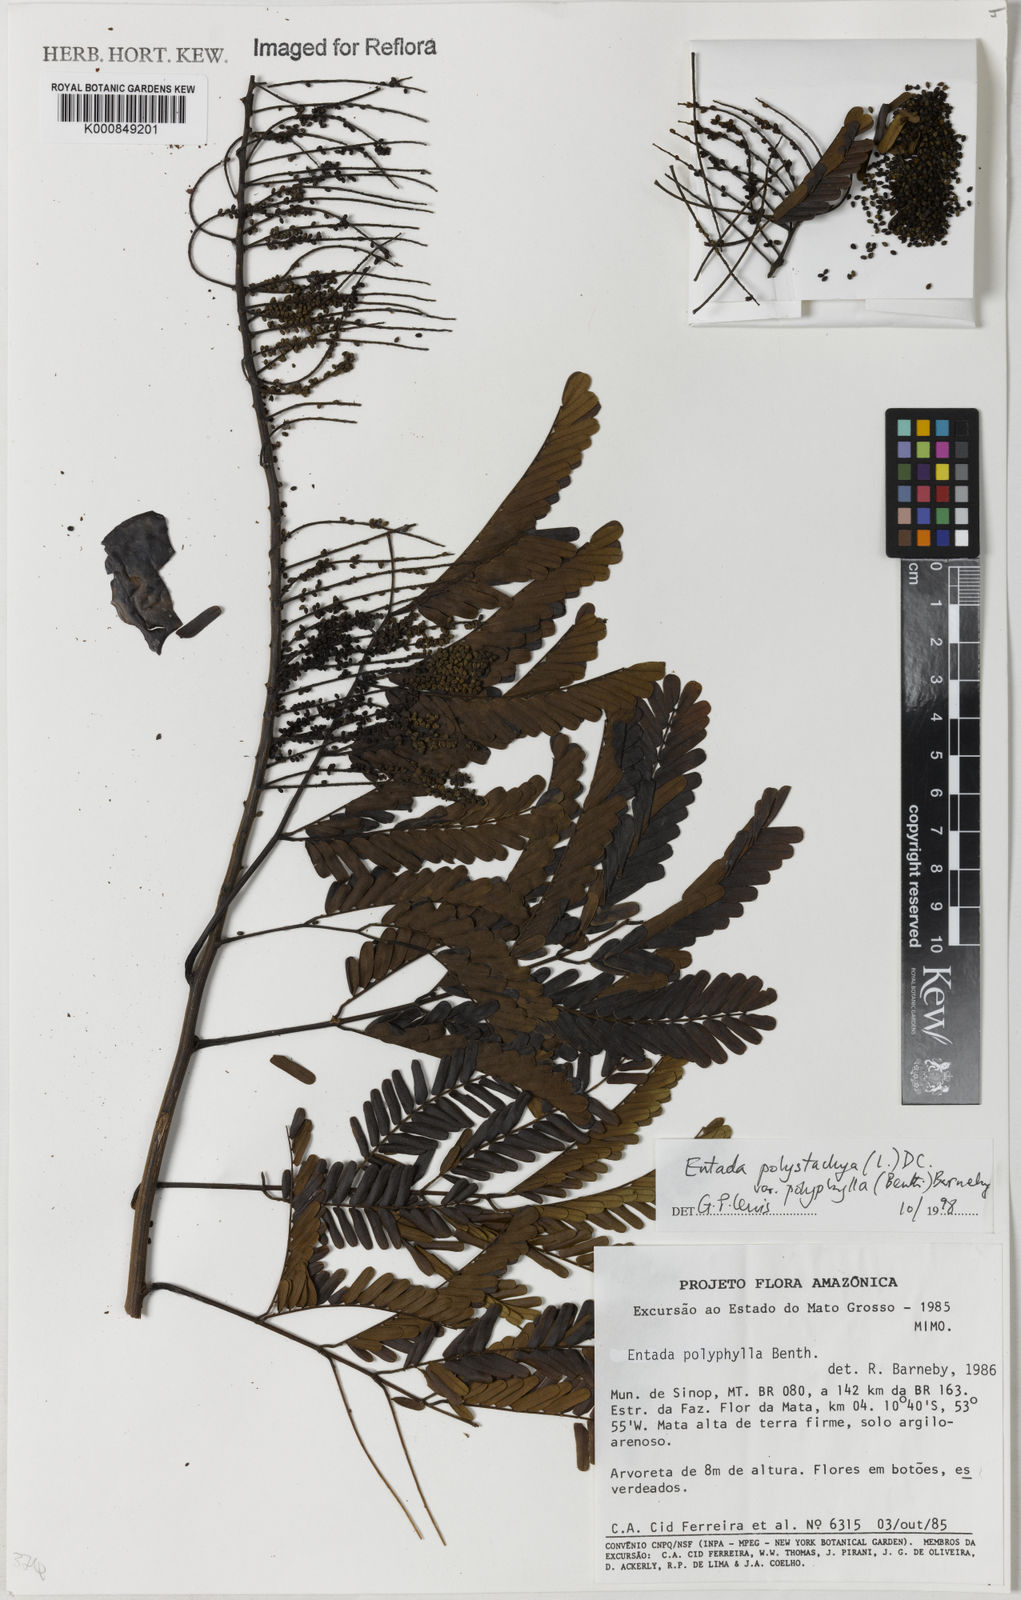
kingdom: Plantae
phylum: Tracheophyta
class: Magnoliopsida
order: Fabales
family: Fabaceae
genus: Entada
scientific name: Entada polyphylla
